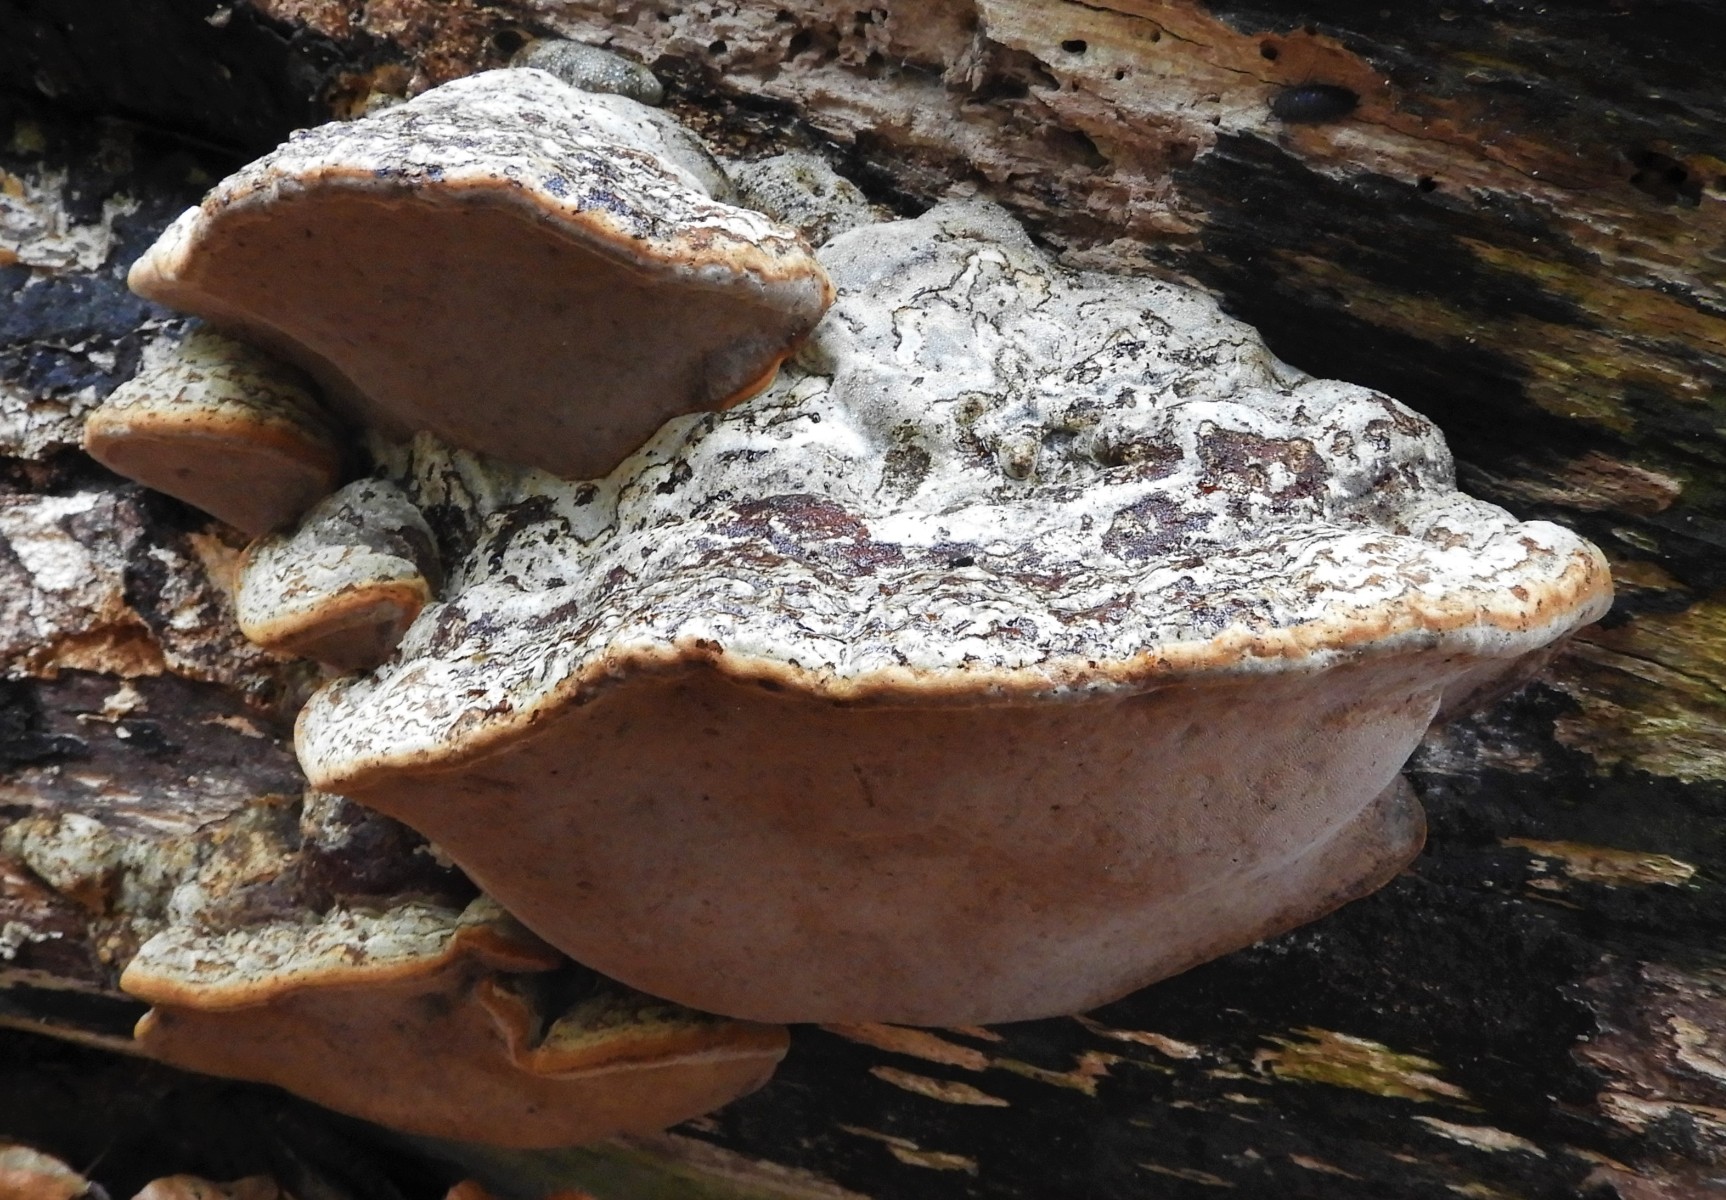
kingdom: Fungi
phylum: Basidiomycota
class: Agaricomycetes
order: Polyporales
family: Polyporaceae
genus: Fomes
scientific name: Fomes fomentarius
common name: tøndersvamp
